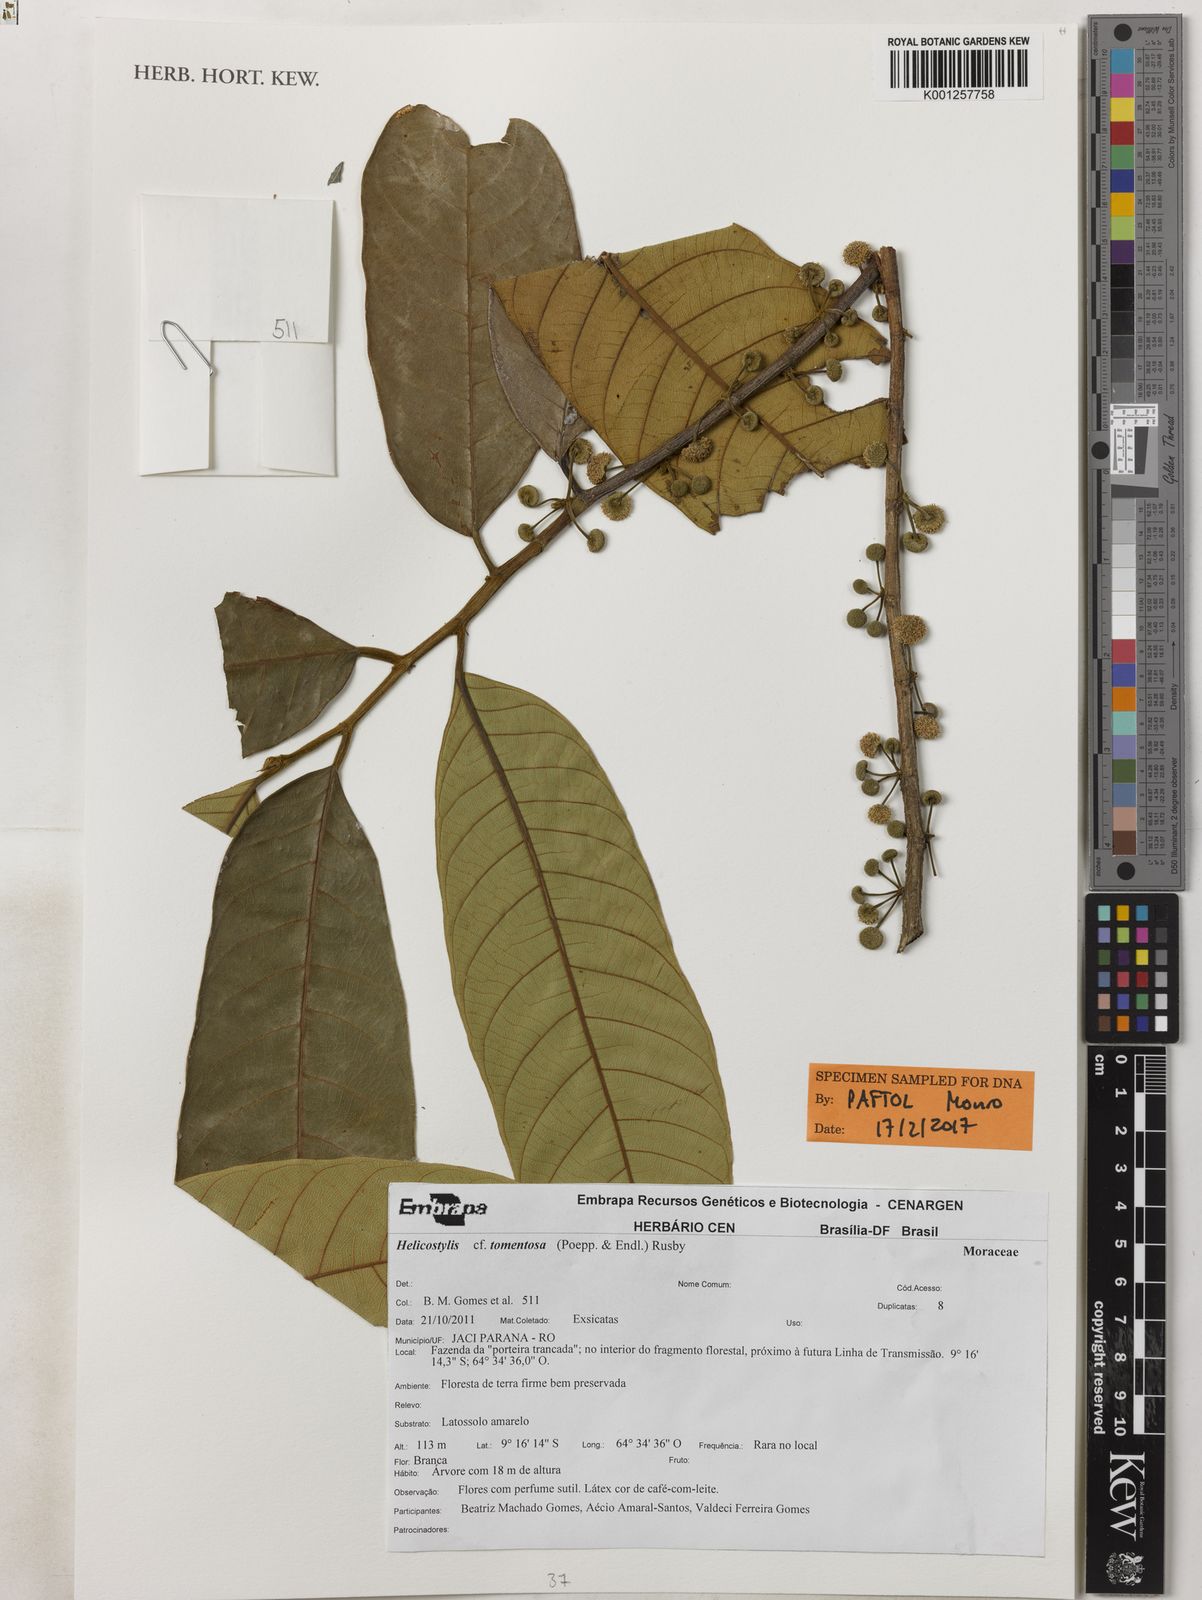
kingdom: Plantae
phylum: Tracheophyta
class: Magnoliopsida
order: Rosales
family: Moraceae
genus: Helicostylis
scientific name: Helicostylis
